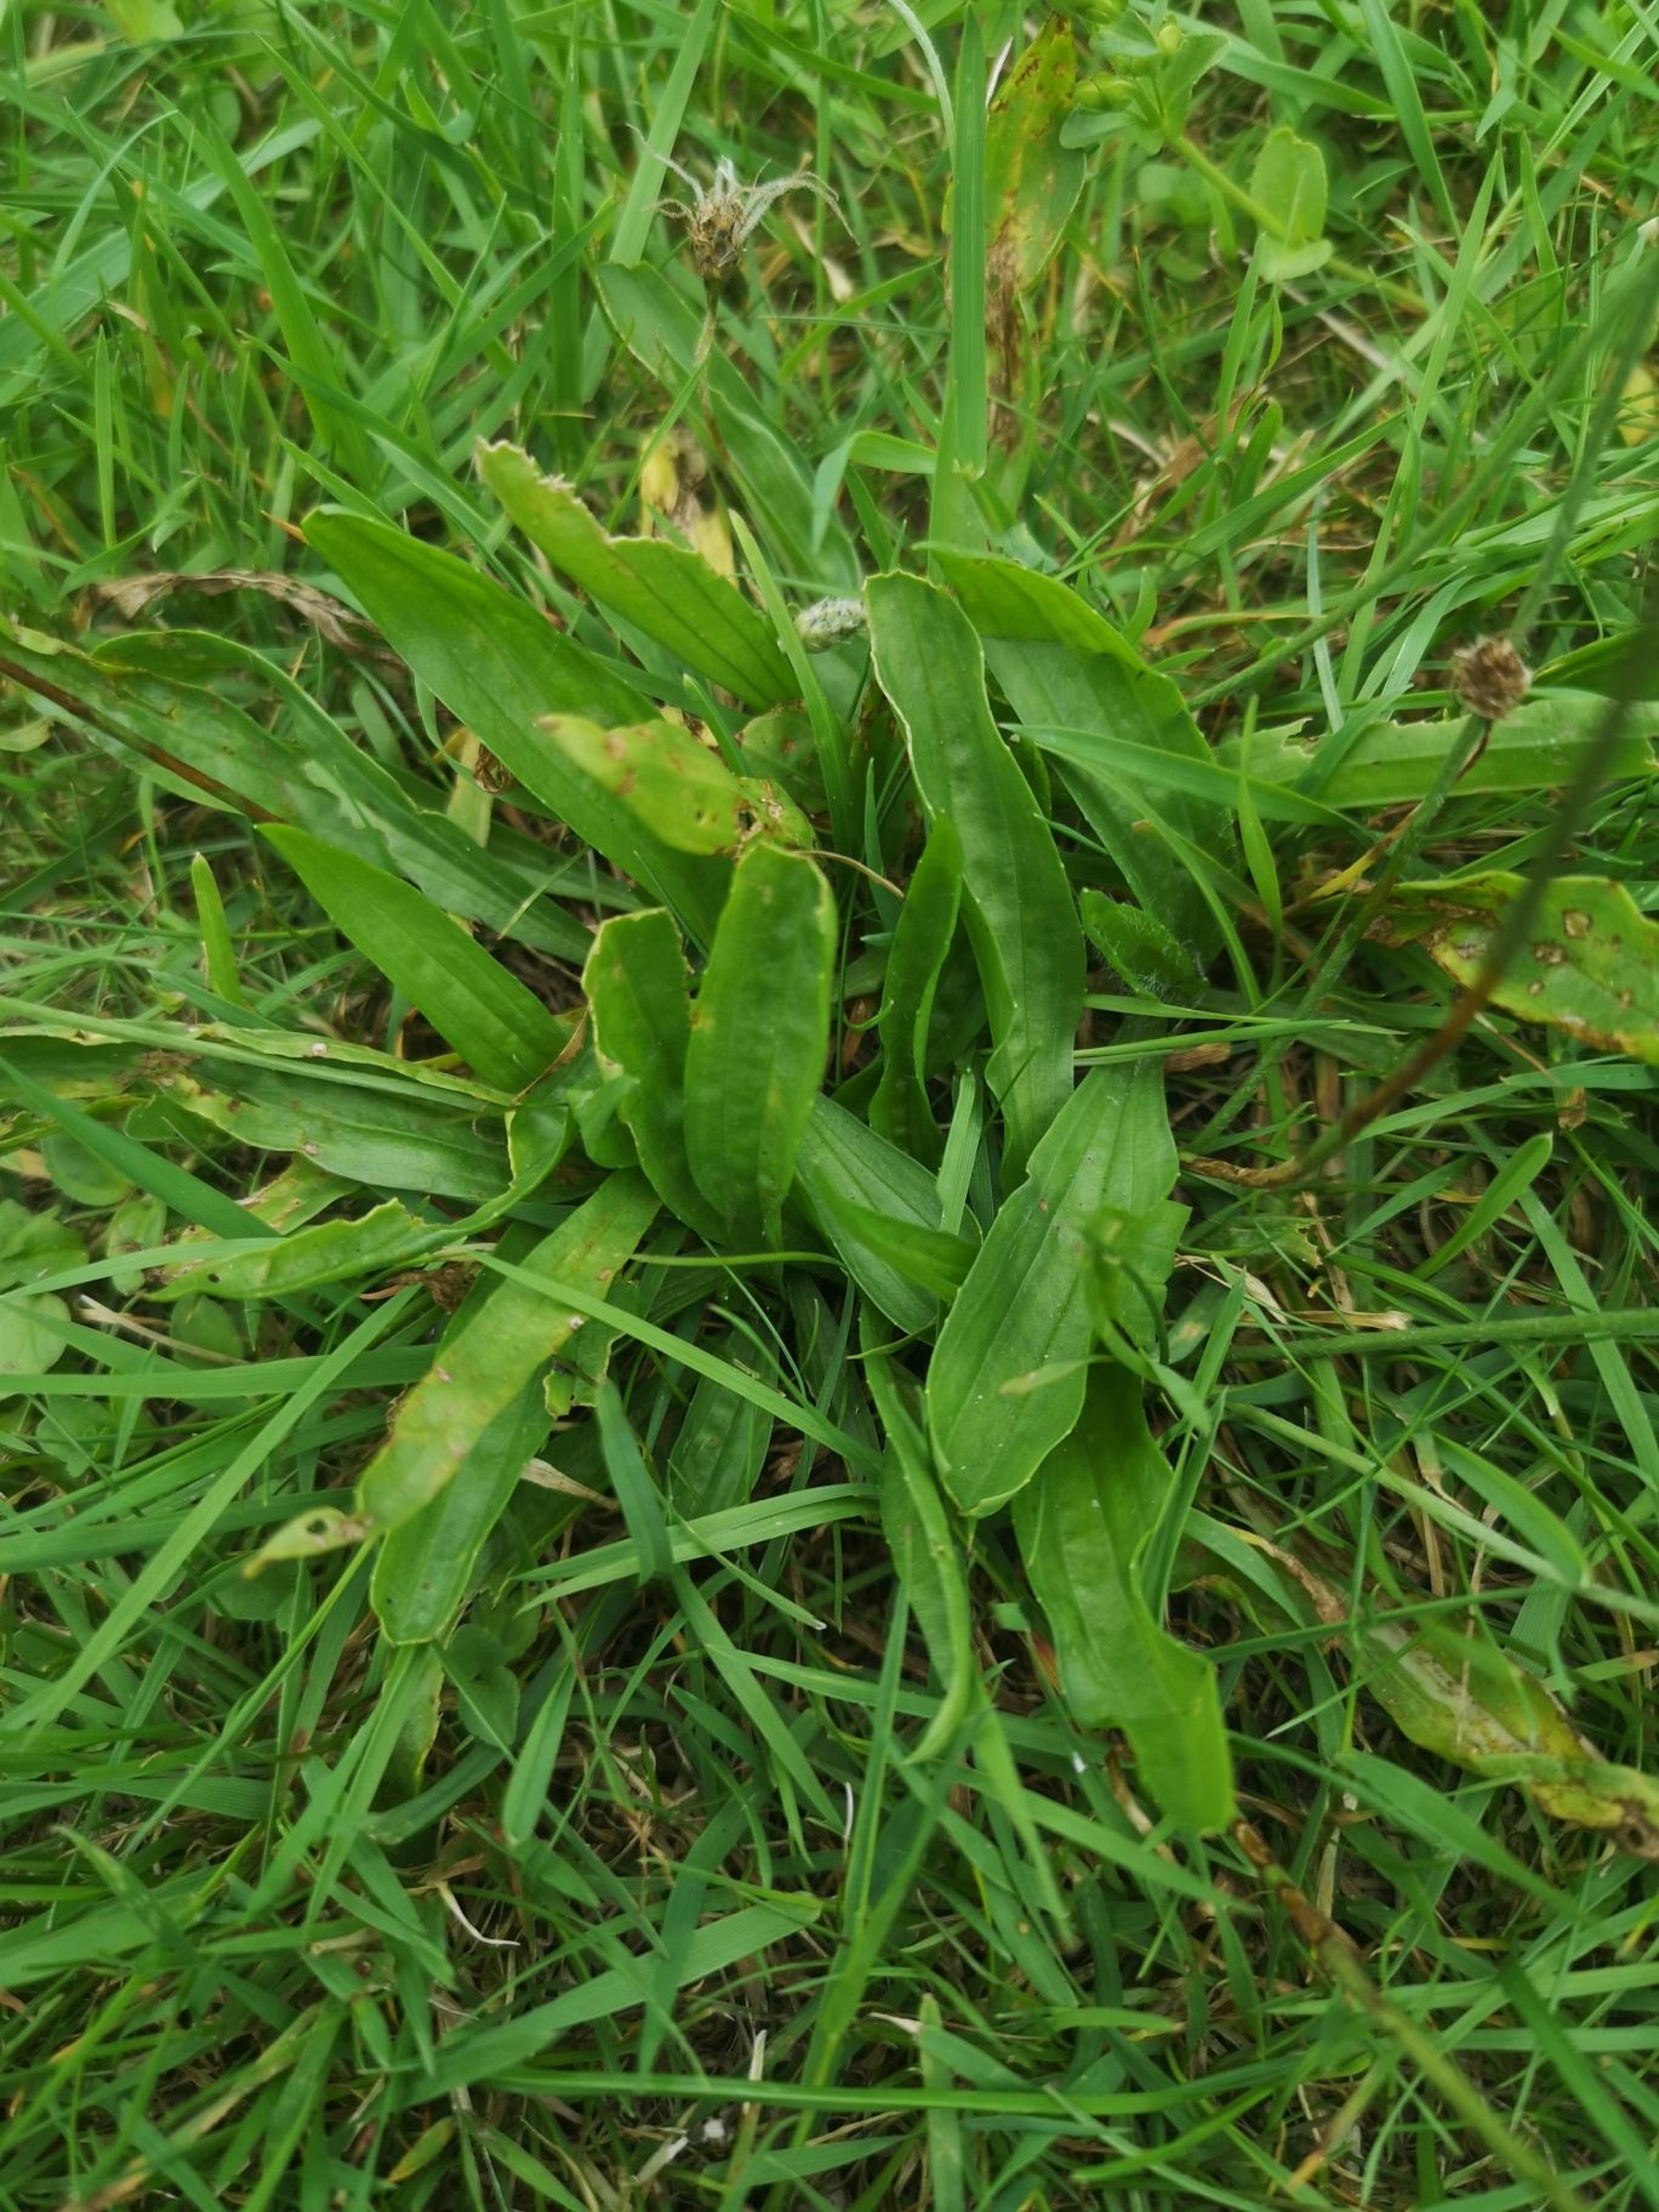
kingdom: Plantae
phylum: Tracheophyta
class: Magnoliopsida
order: Lamiales
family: Plantaginaceae
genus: Plantago
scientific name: Plantago lanceolata
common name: Lancet-vejbred
